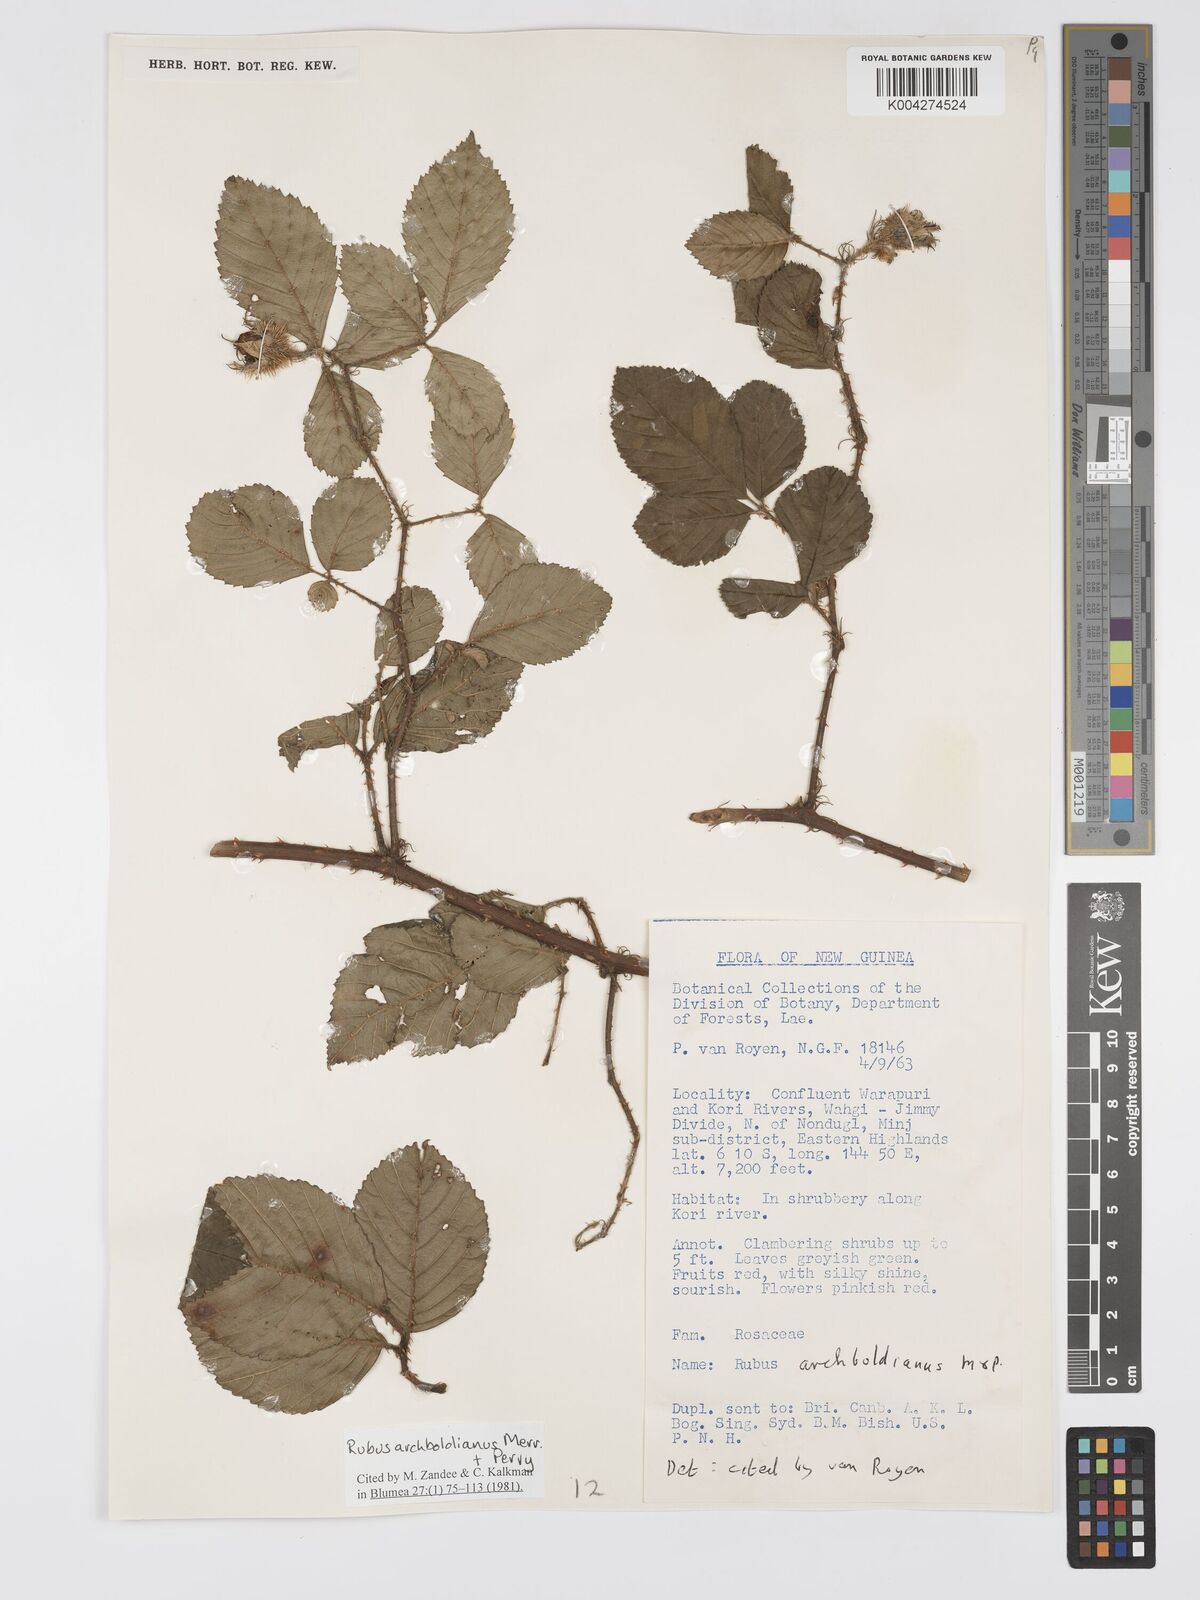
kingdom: Plantae
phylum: Tracheophyta
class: Magnoliopsida
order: Rosales
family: Rosaceae
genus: Rubus
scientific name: Rubus archboldianus
